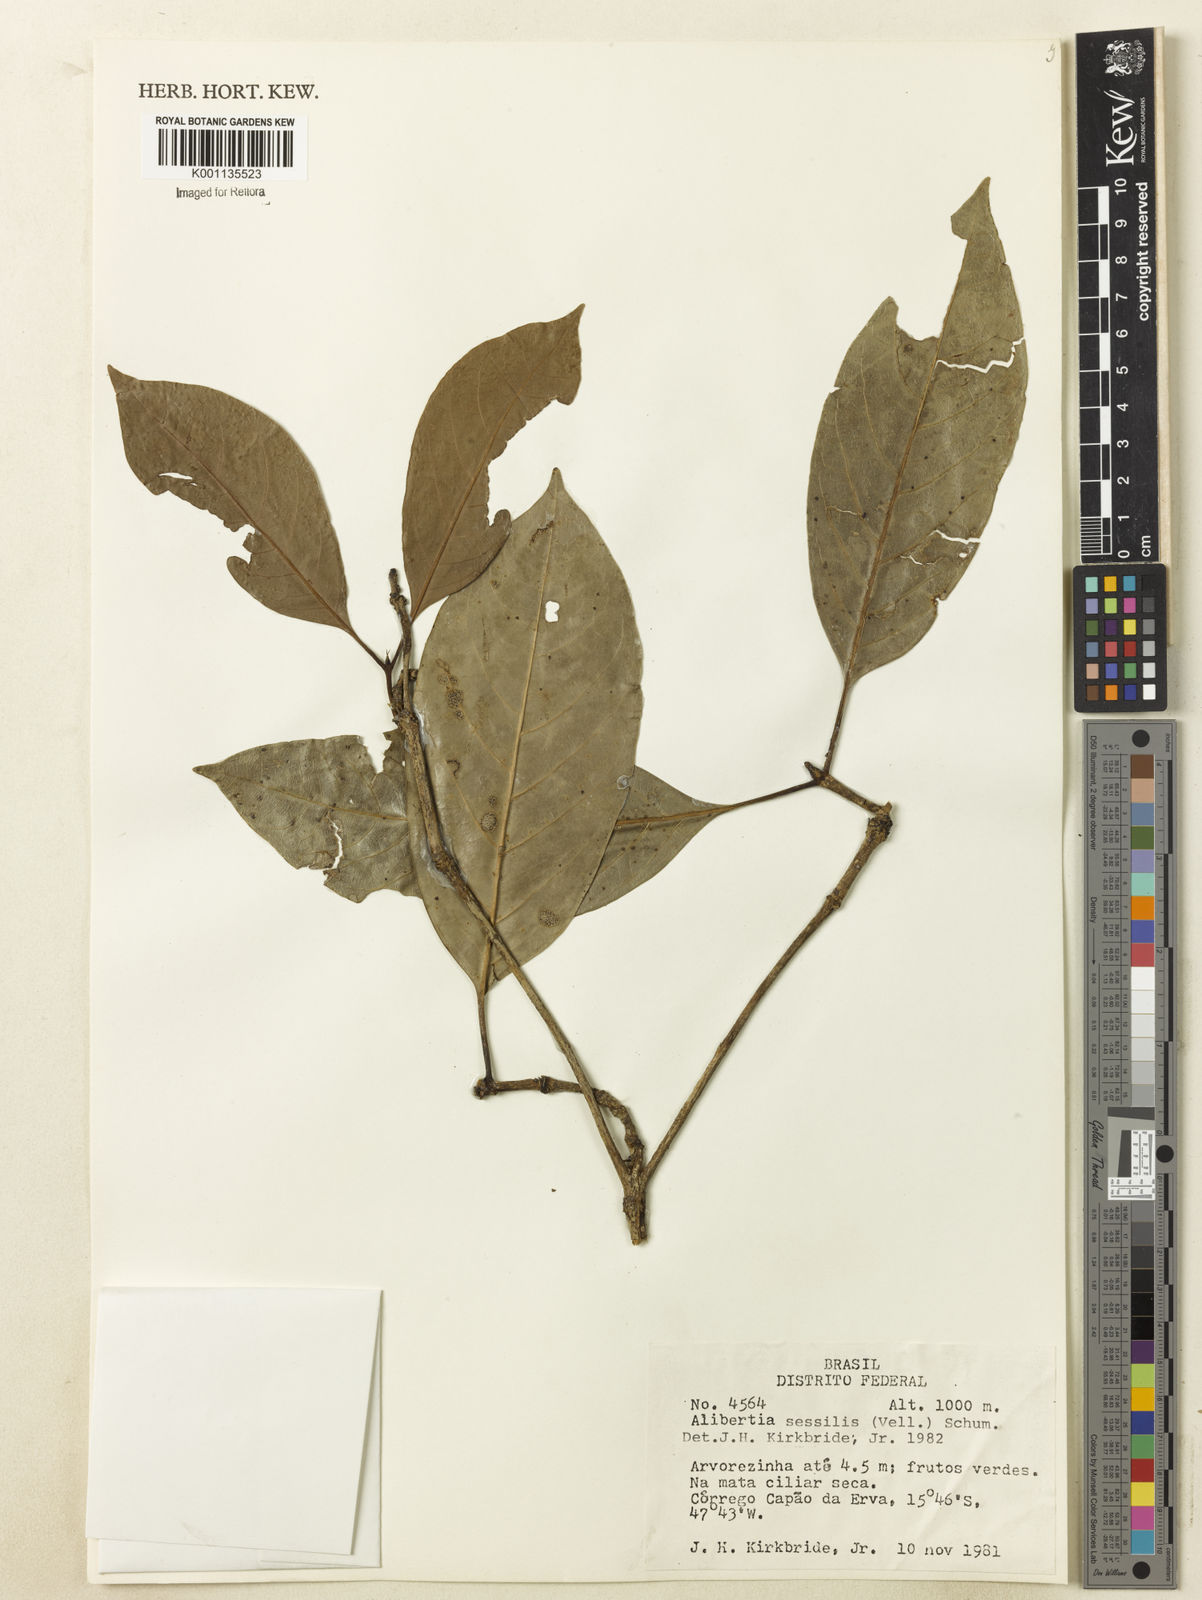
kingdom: Plantae
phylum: Tracheophyta
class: Magnoliopsida
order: Gentianales
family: Rubiaceae
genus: Cordiera
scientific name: Cordiera sessilis
